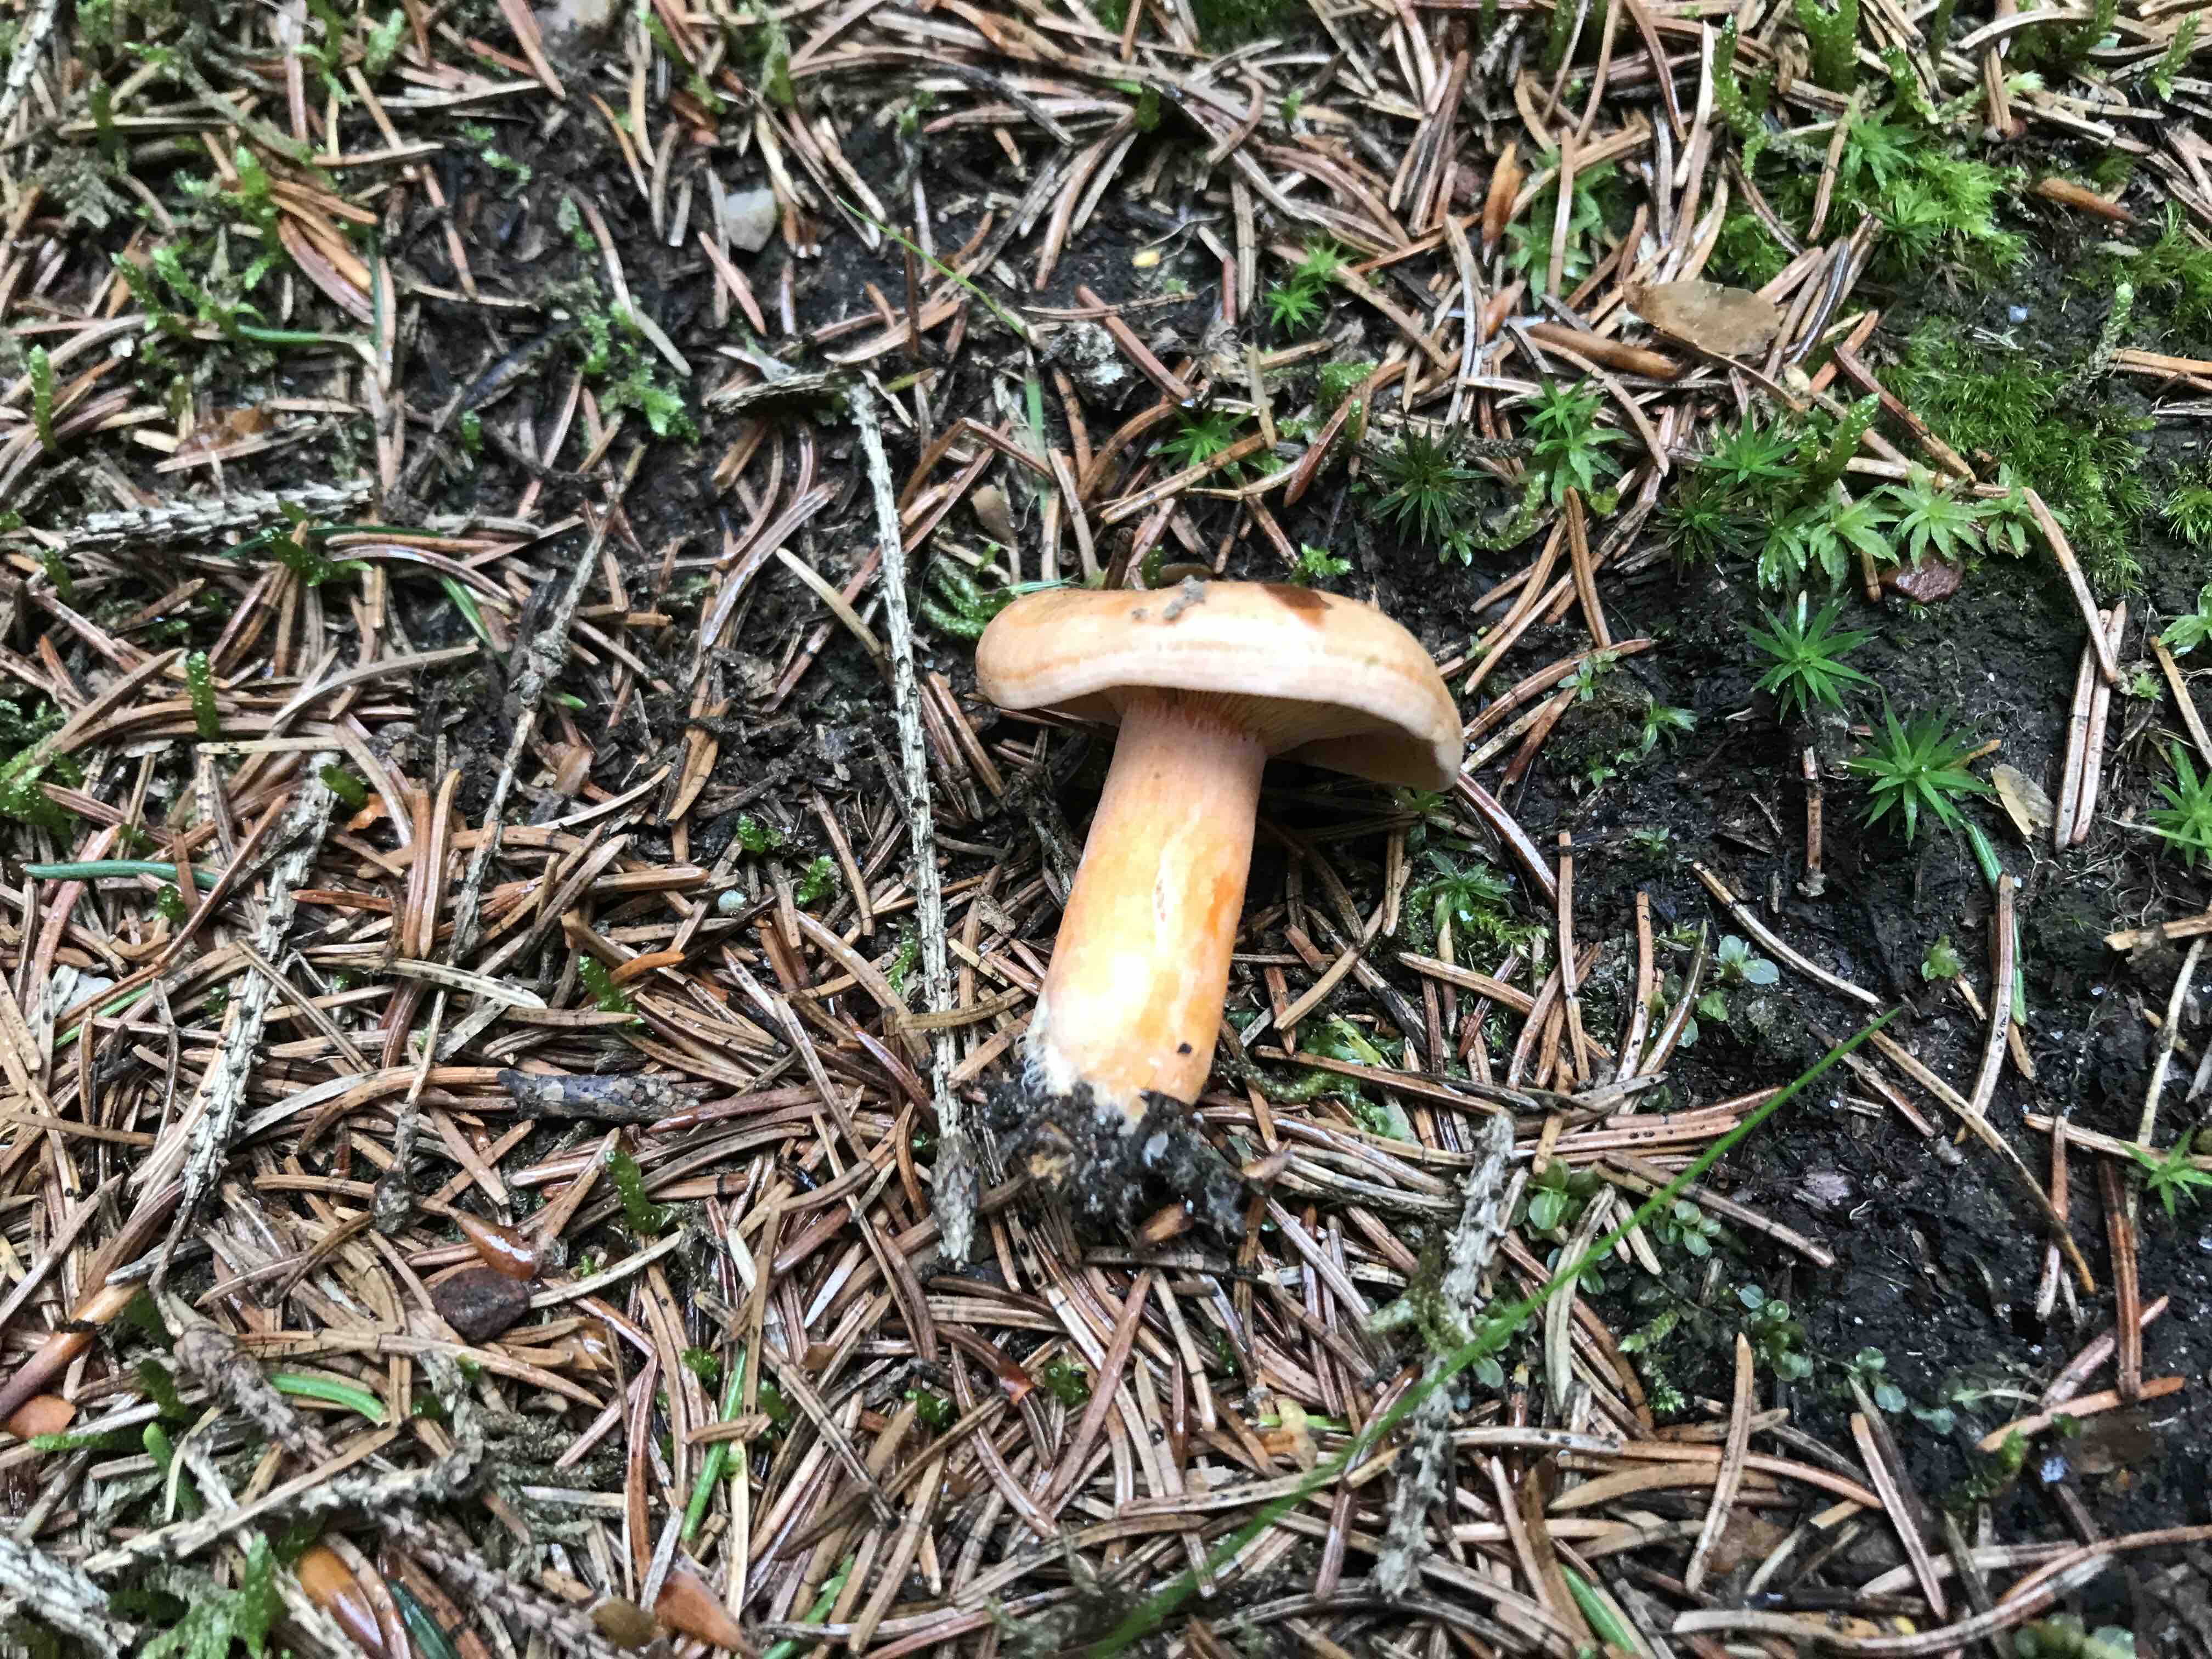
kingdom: Fungi
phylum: Basidiomycota
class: Agaricomycetes
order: Russulales
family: Russulaceae
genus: Lactarius
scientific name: Lactarius deterrimus
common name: gran-mælkehat
